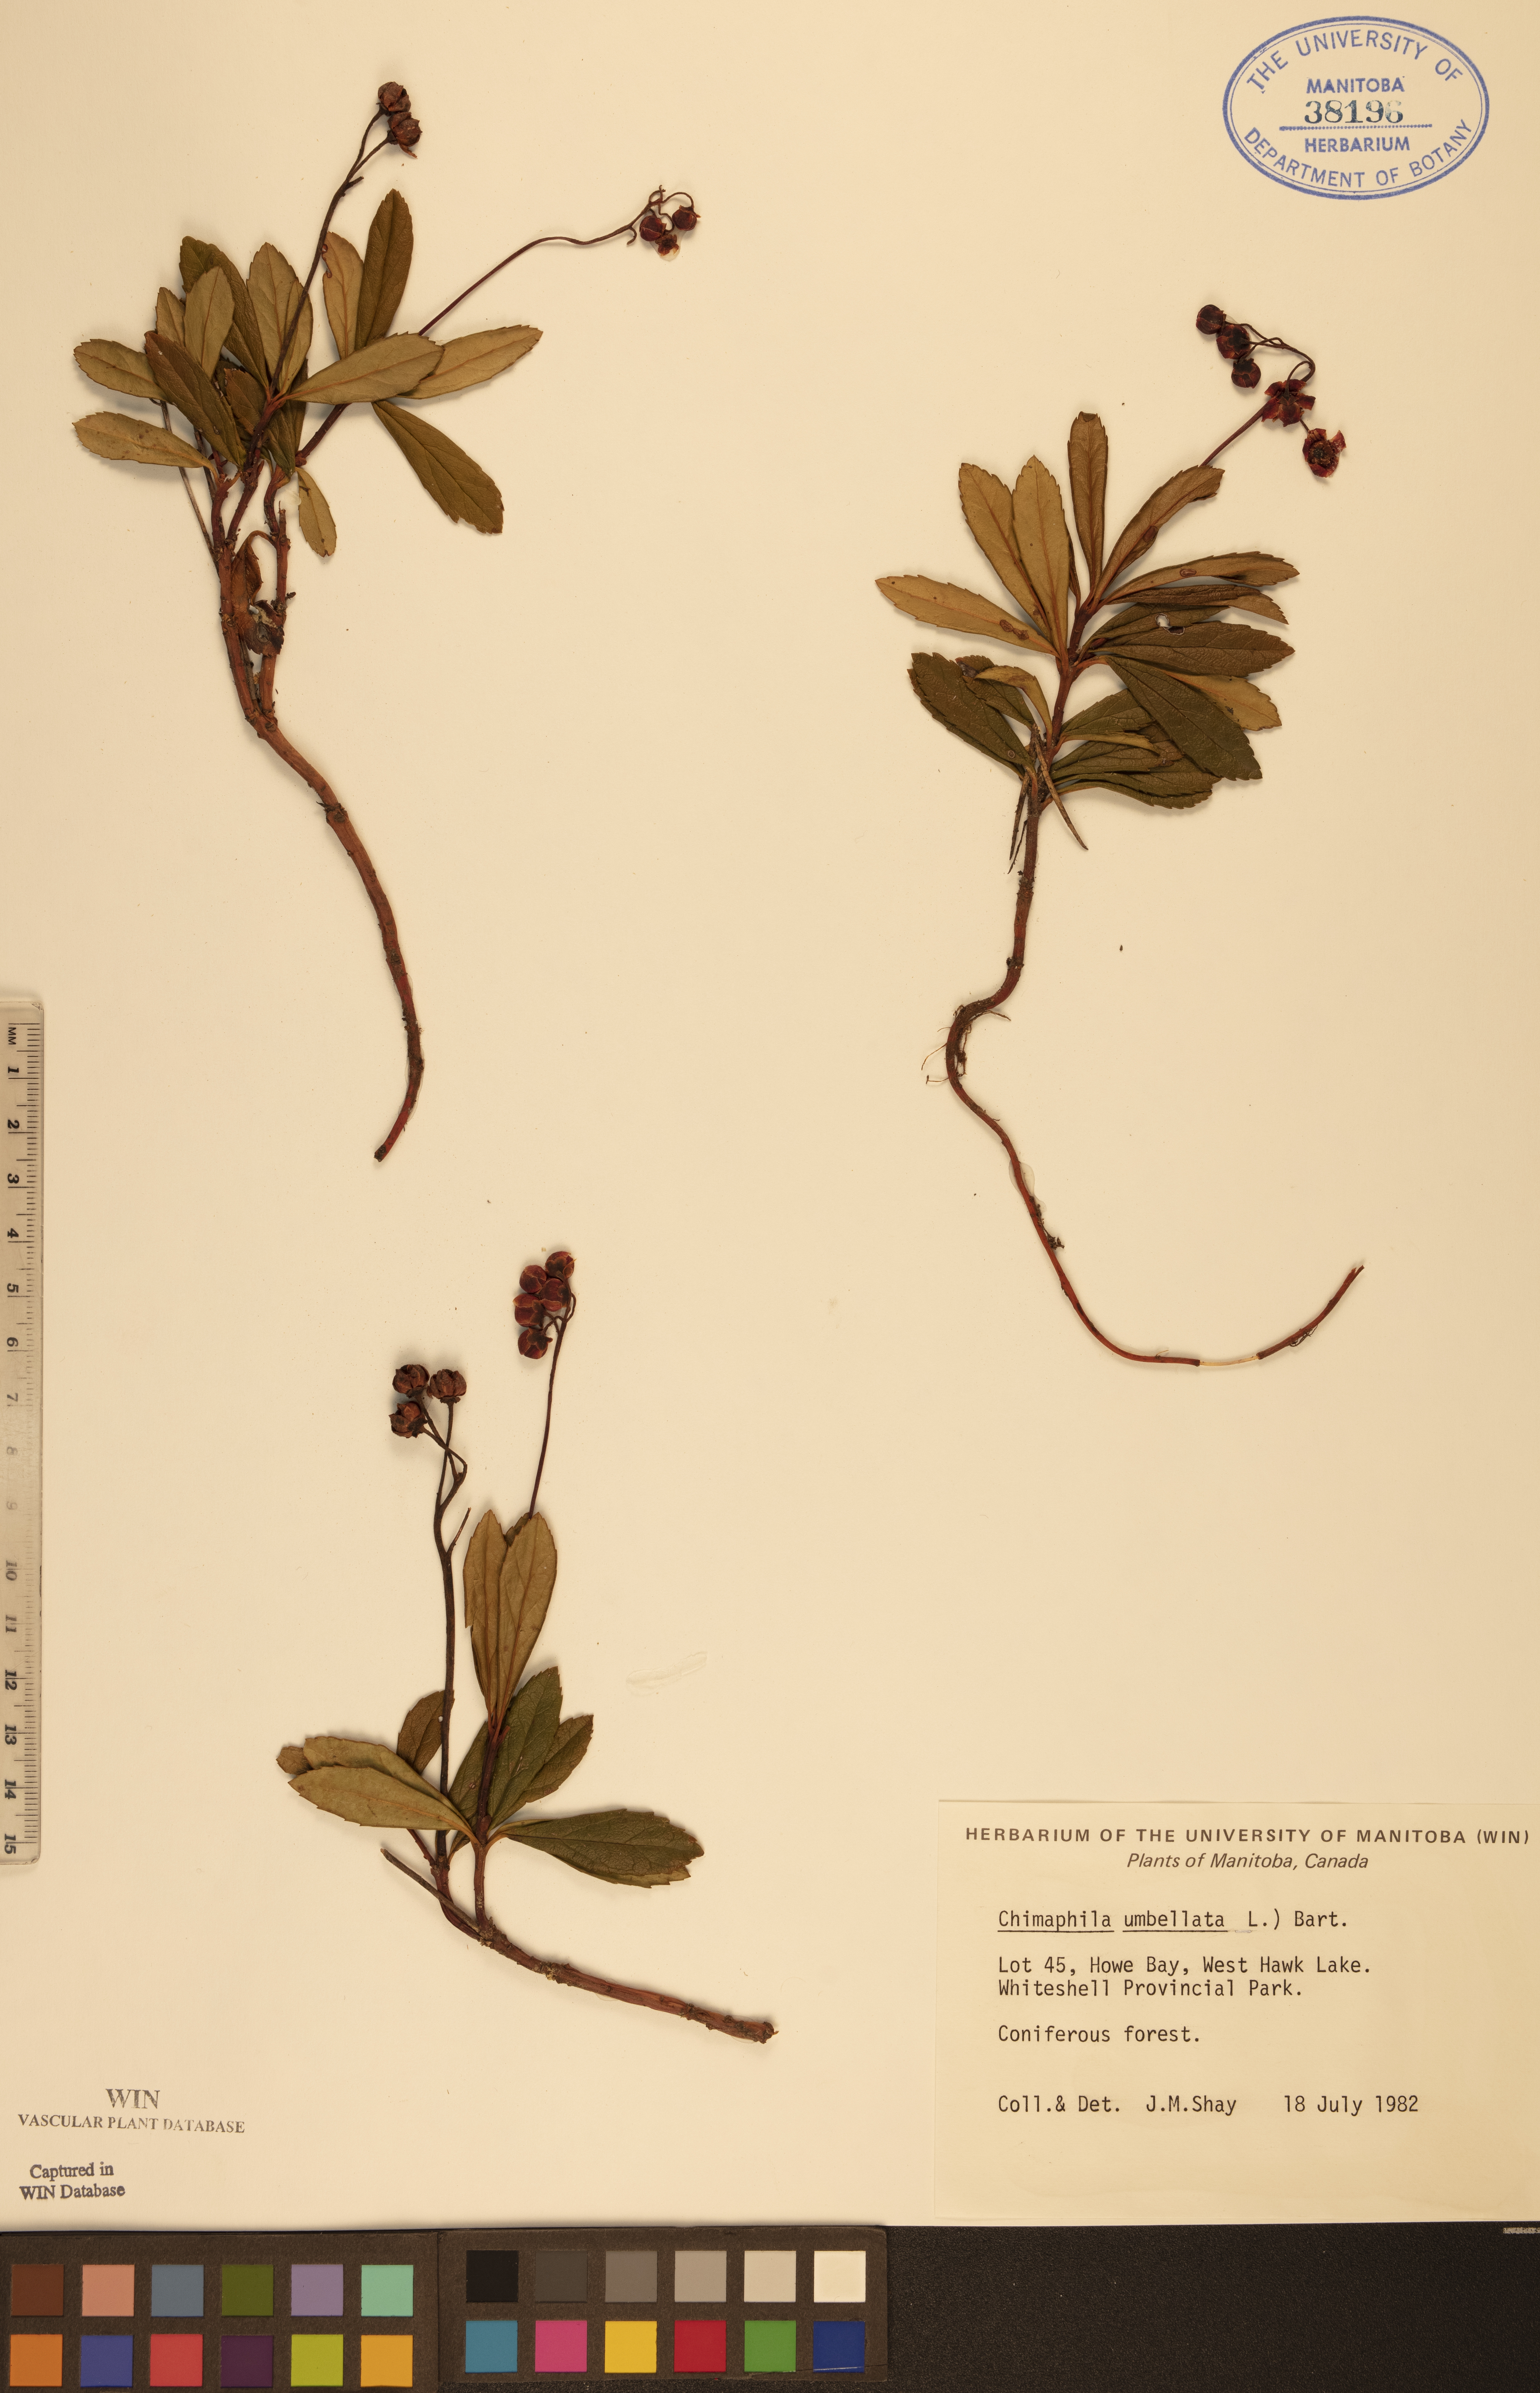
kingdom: Plantae
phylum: Tracheophyta
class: Magnoliopsida
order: Ericales
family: Ericaceae
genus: Chimaphila
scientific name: Chimaphila umbellata
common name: Pipsissewa
